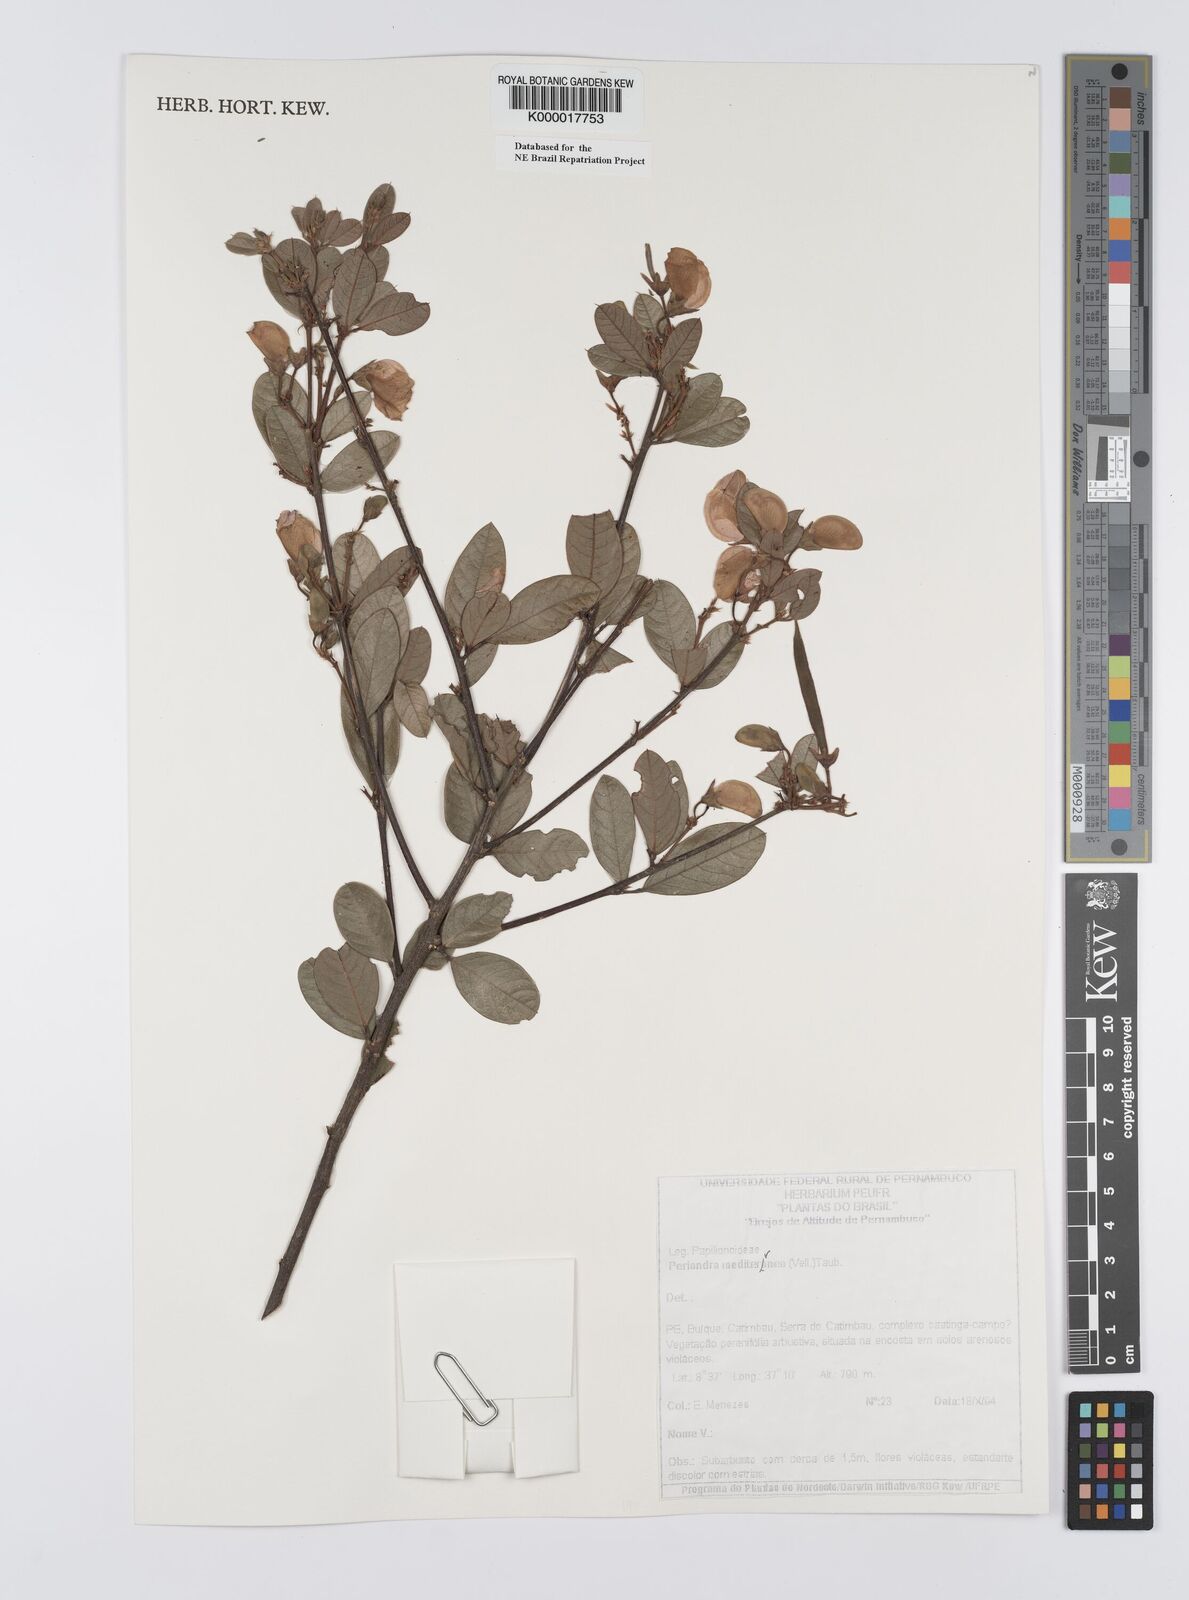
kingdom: Plantae
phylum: Tracheophyta
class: Magnoliopsida
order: Fabales
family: Fabaceae
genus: Periandra
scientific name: Periandra mediterranea
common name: Brazilian licorice
